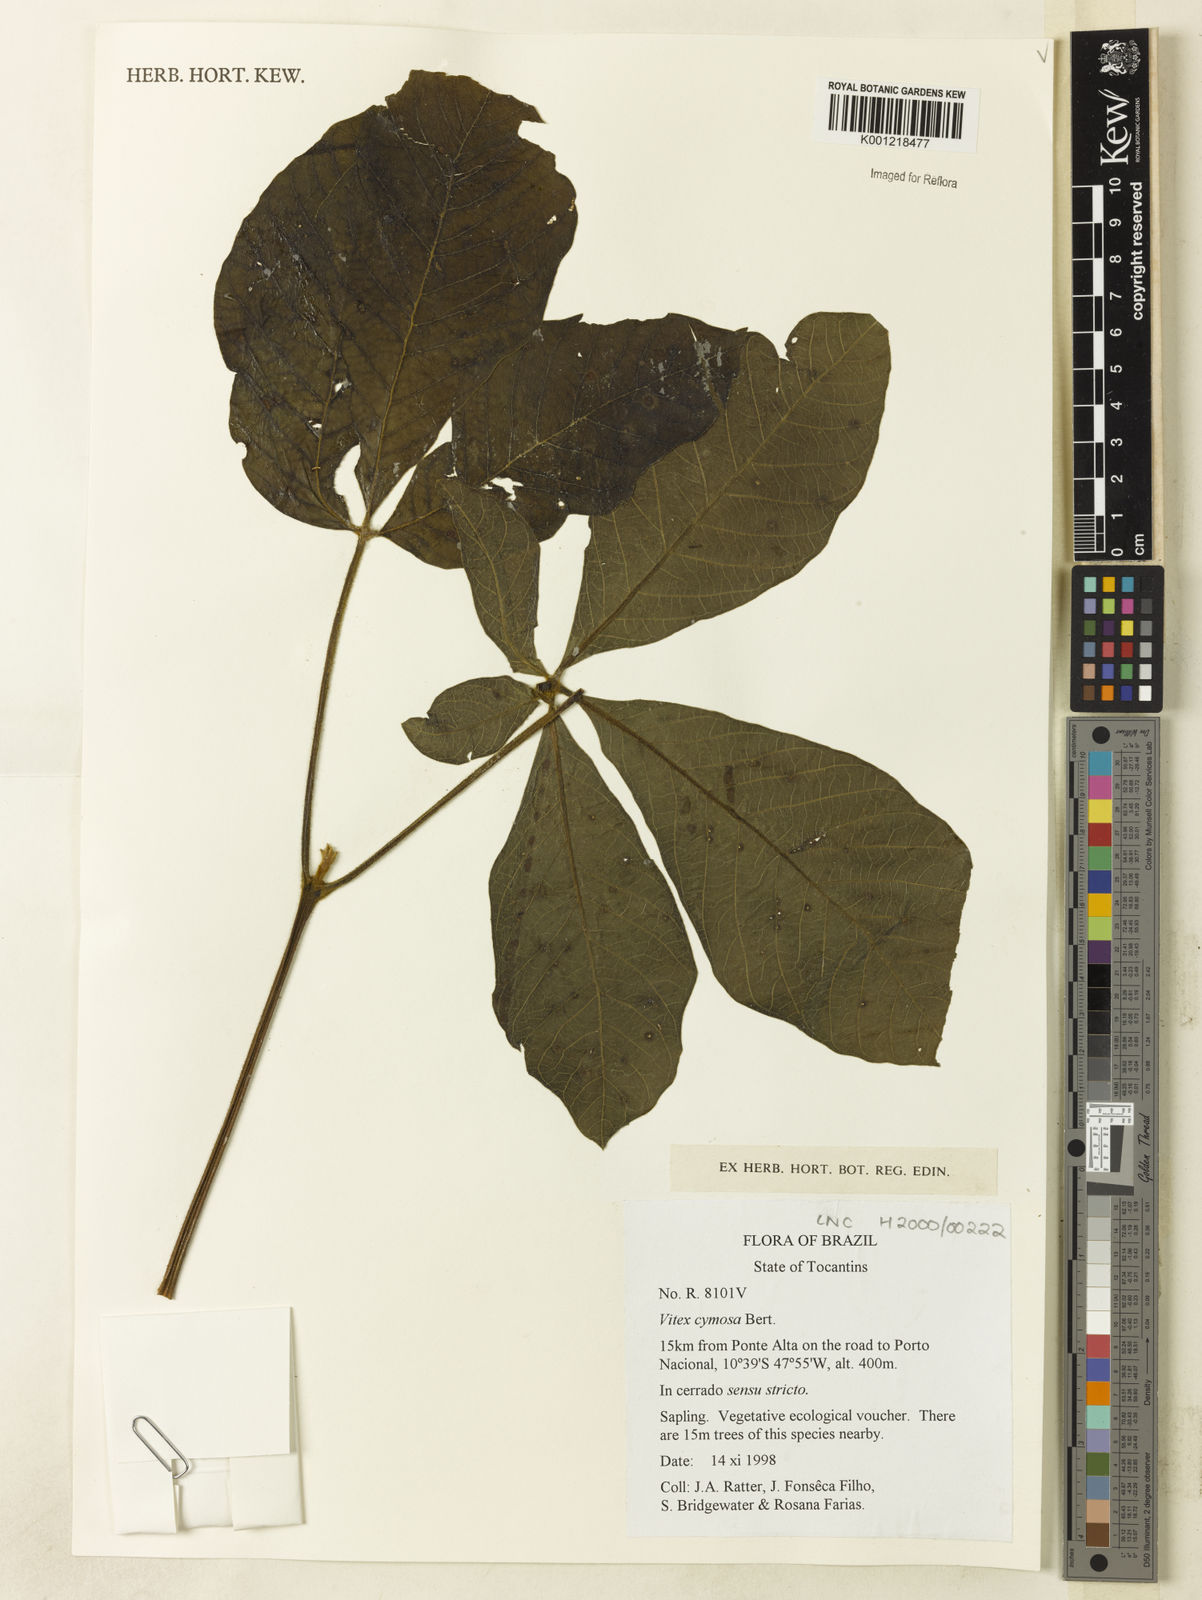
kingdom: Plantae
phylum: Tracheophyta
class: Magnoliopsida
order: Lamiales
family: Lamiaceae
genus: Vitex
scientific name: Vitex cymosa
